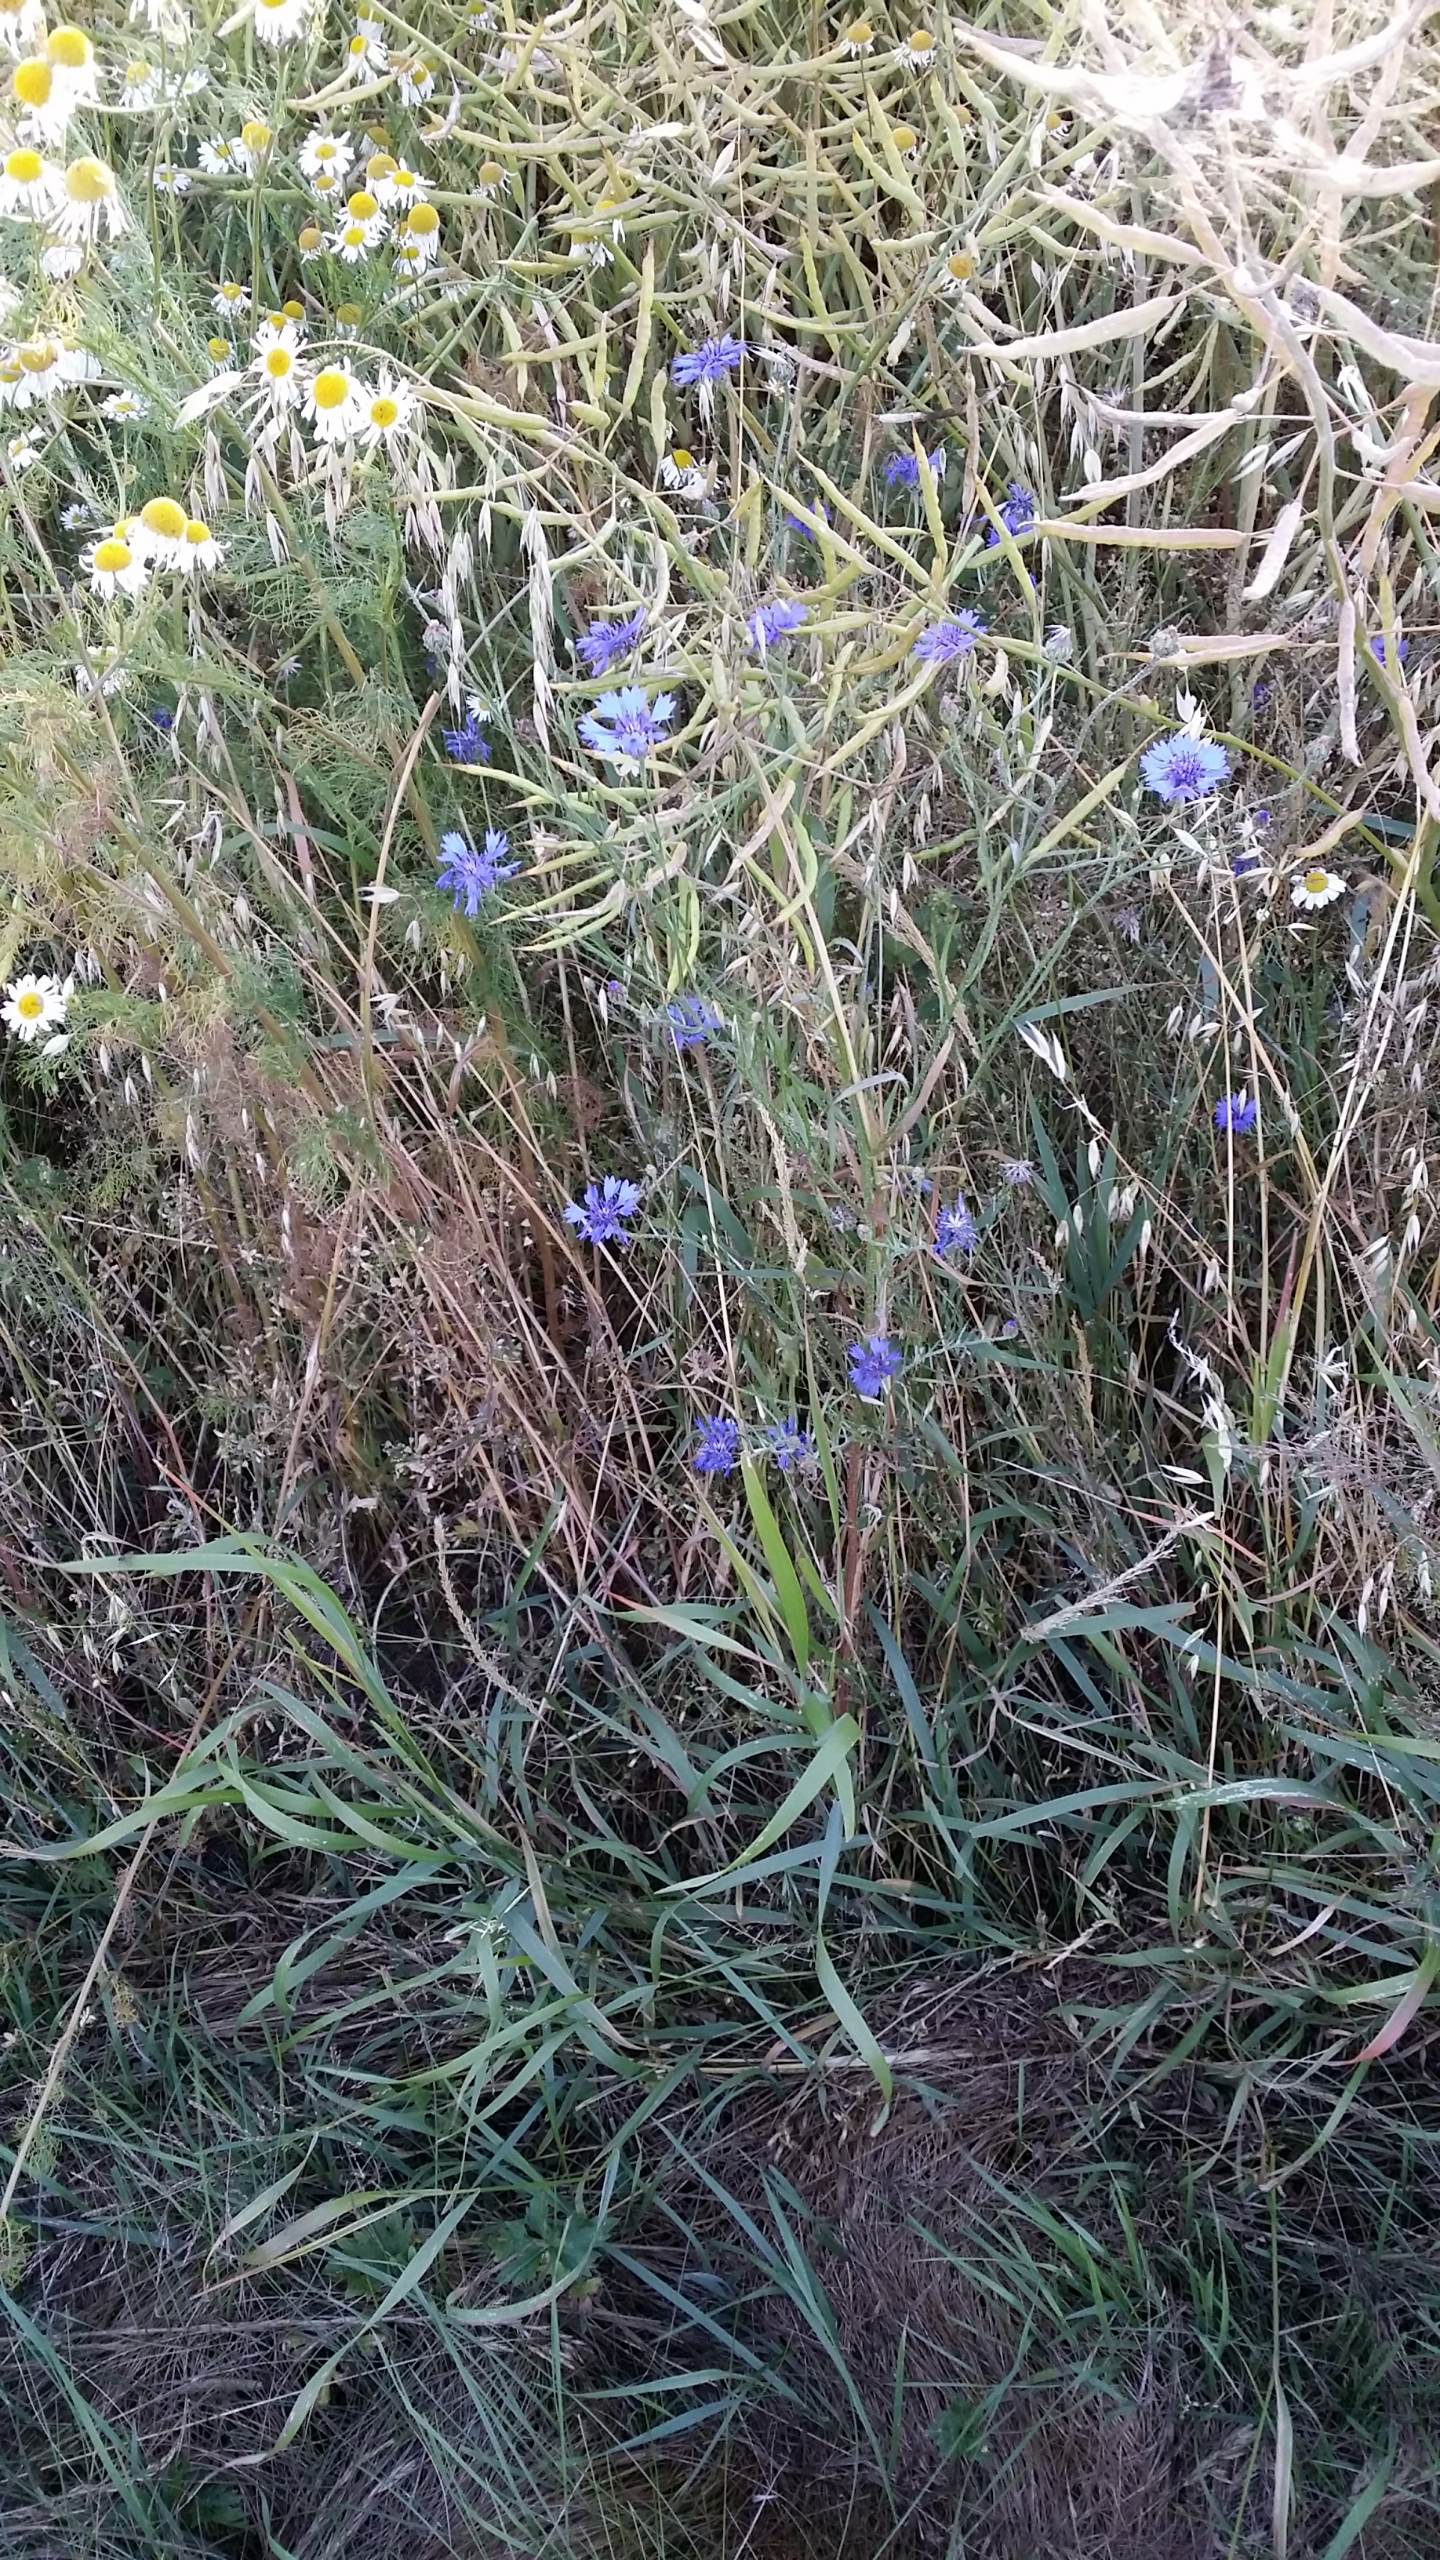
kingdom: Plantae
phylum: Tracheophyta
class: Magnoliopsida
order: Asterales
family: Asteraceae
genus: Centaurea
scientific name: Centaurea cyanus
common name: Kornblomst
